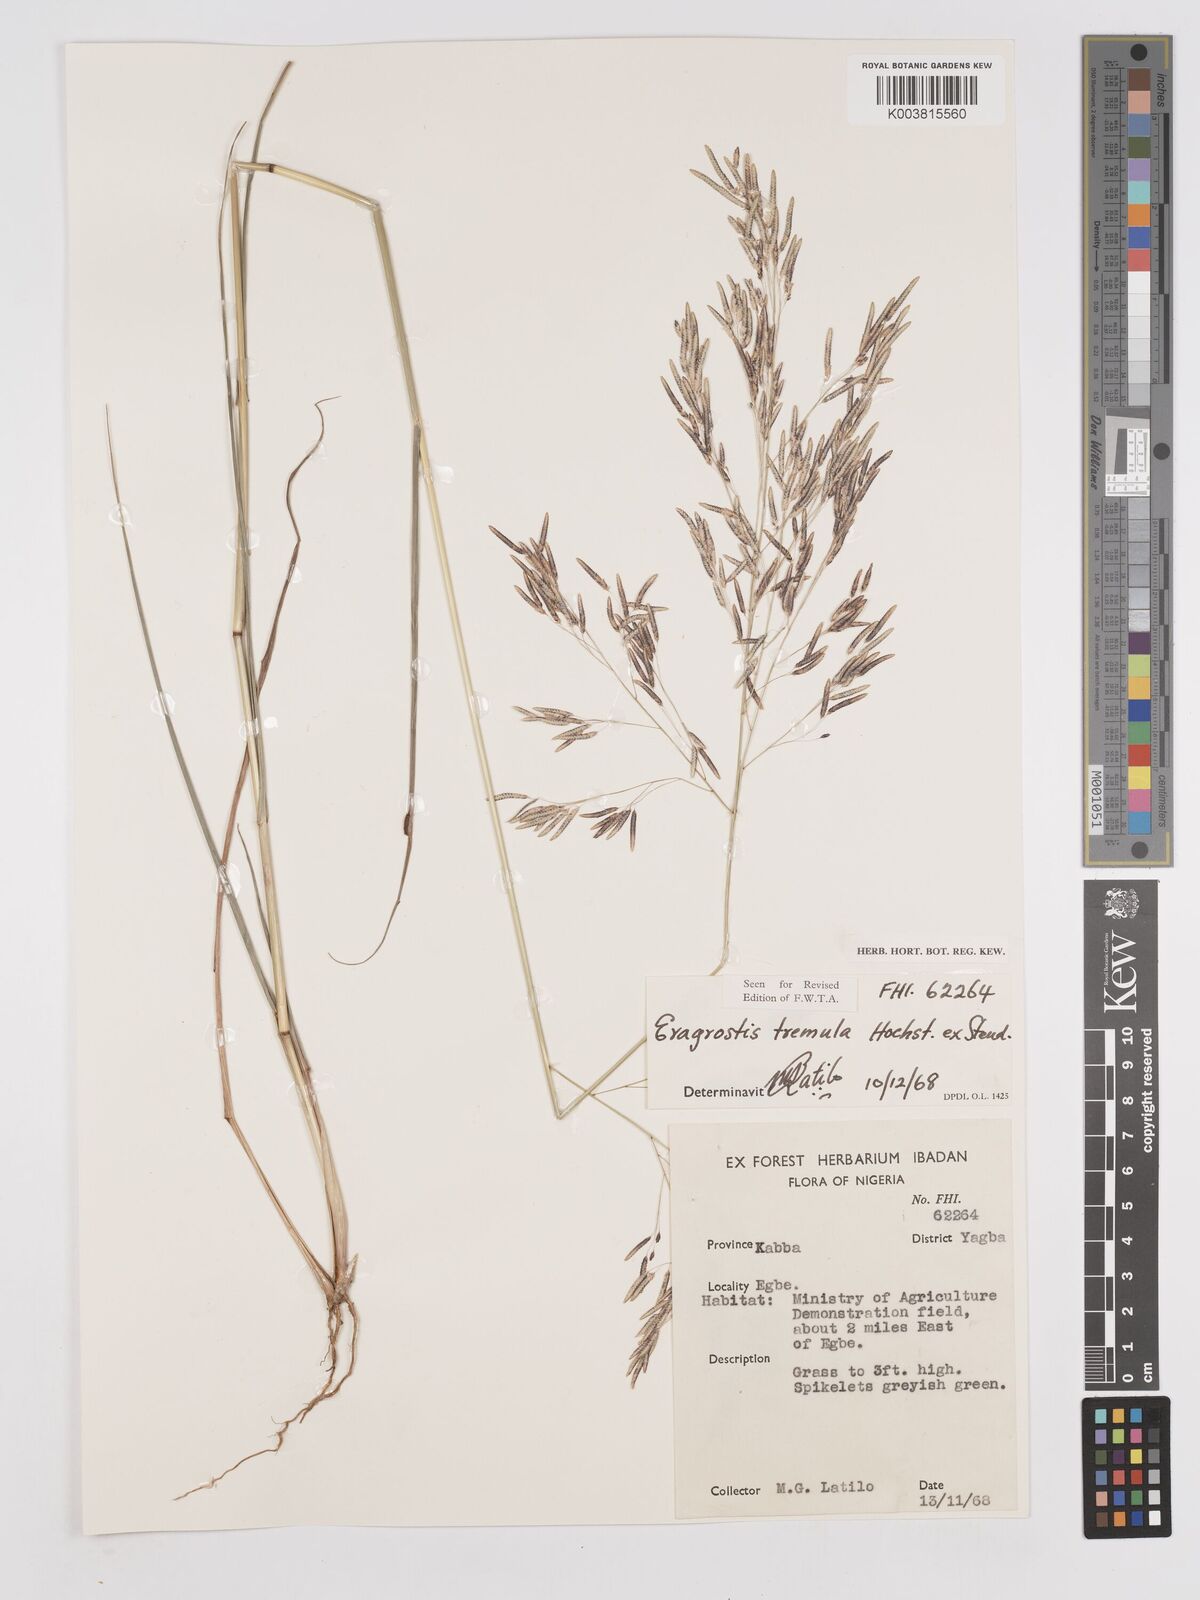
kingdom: Plantae
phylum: Tracheophyta
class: Liliopsida
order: Poales
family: Poaceae
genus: Eragrostis
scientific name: Eragrostis tremula
